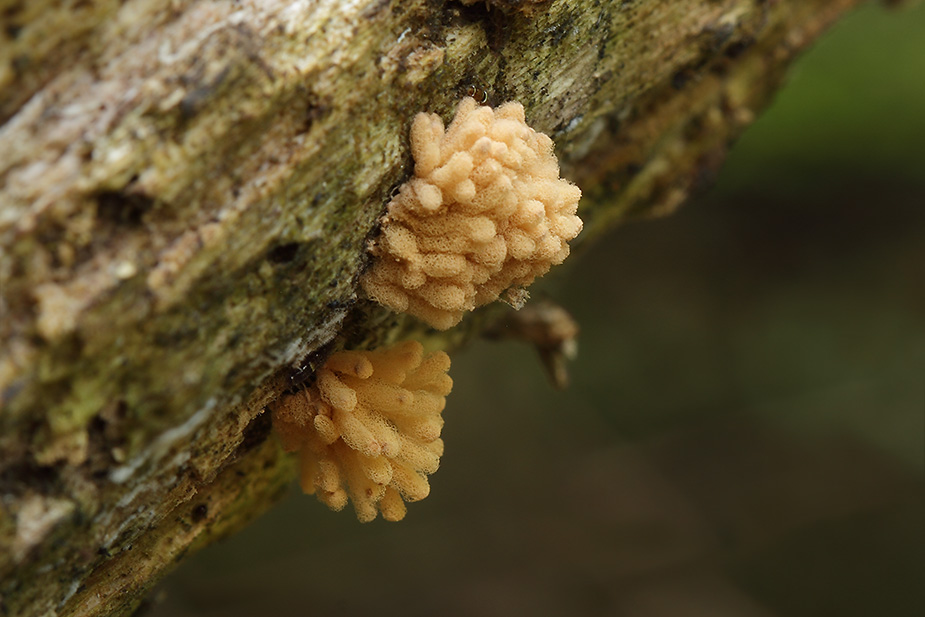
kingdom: Protozoa
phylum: Mycetozoa
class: Myxomycetes
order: Trichiales
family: Arcyriaceae
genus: Arcyria
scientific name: Arcyria obvelata
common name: okkergul skålsvøb
